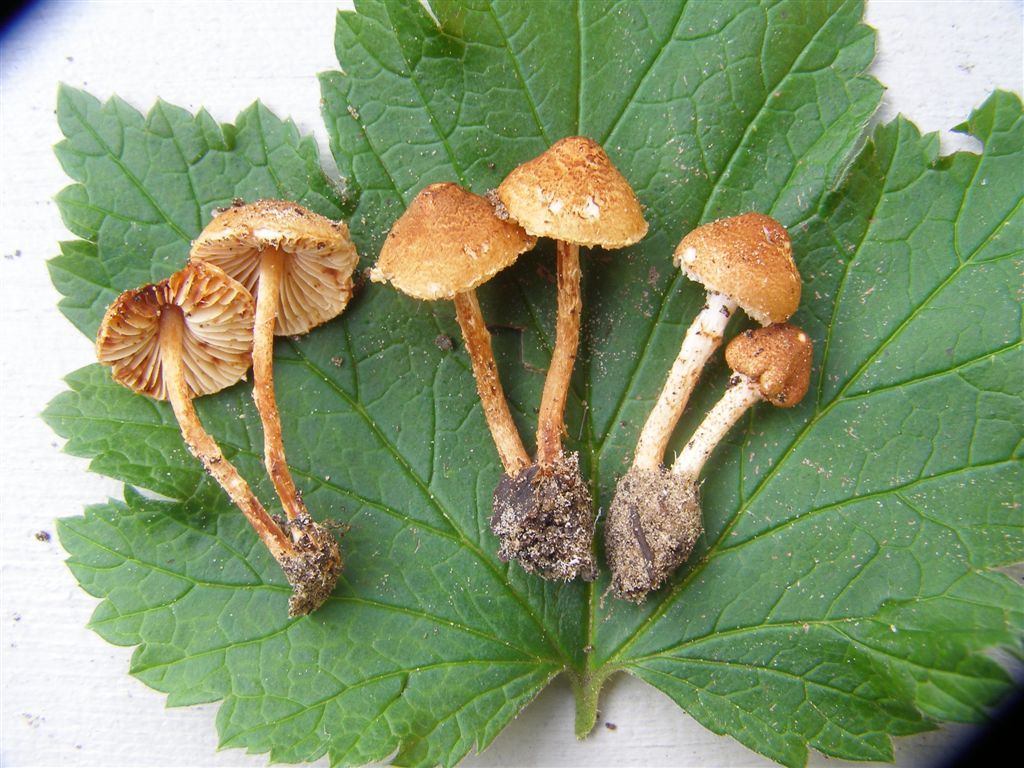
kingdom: Fungi
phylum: Basidiomycota
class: Agaricomycetes
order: Agaricales
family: Agaricaceae
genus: Lepiota
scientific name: Lepiota castanea
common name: ræverød parasolhat
